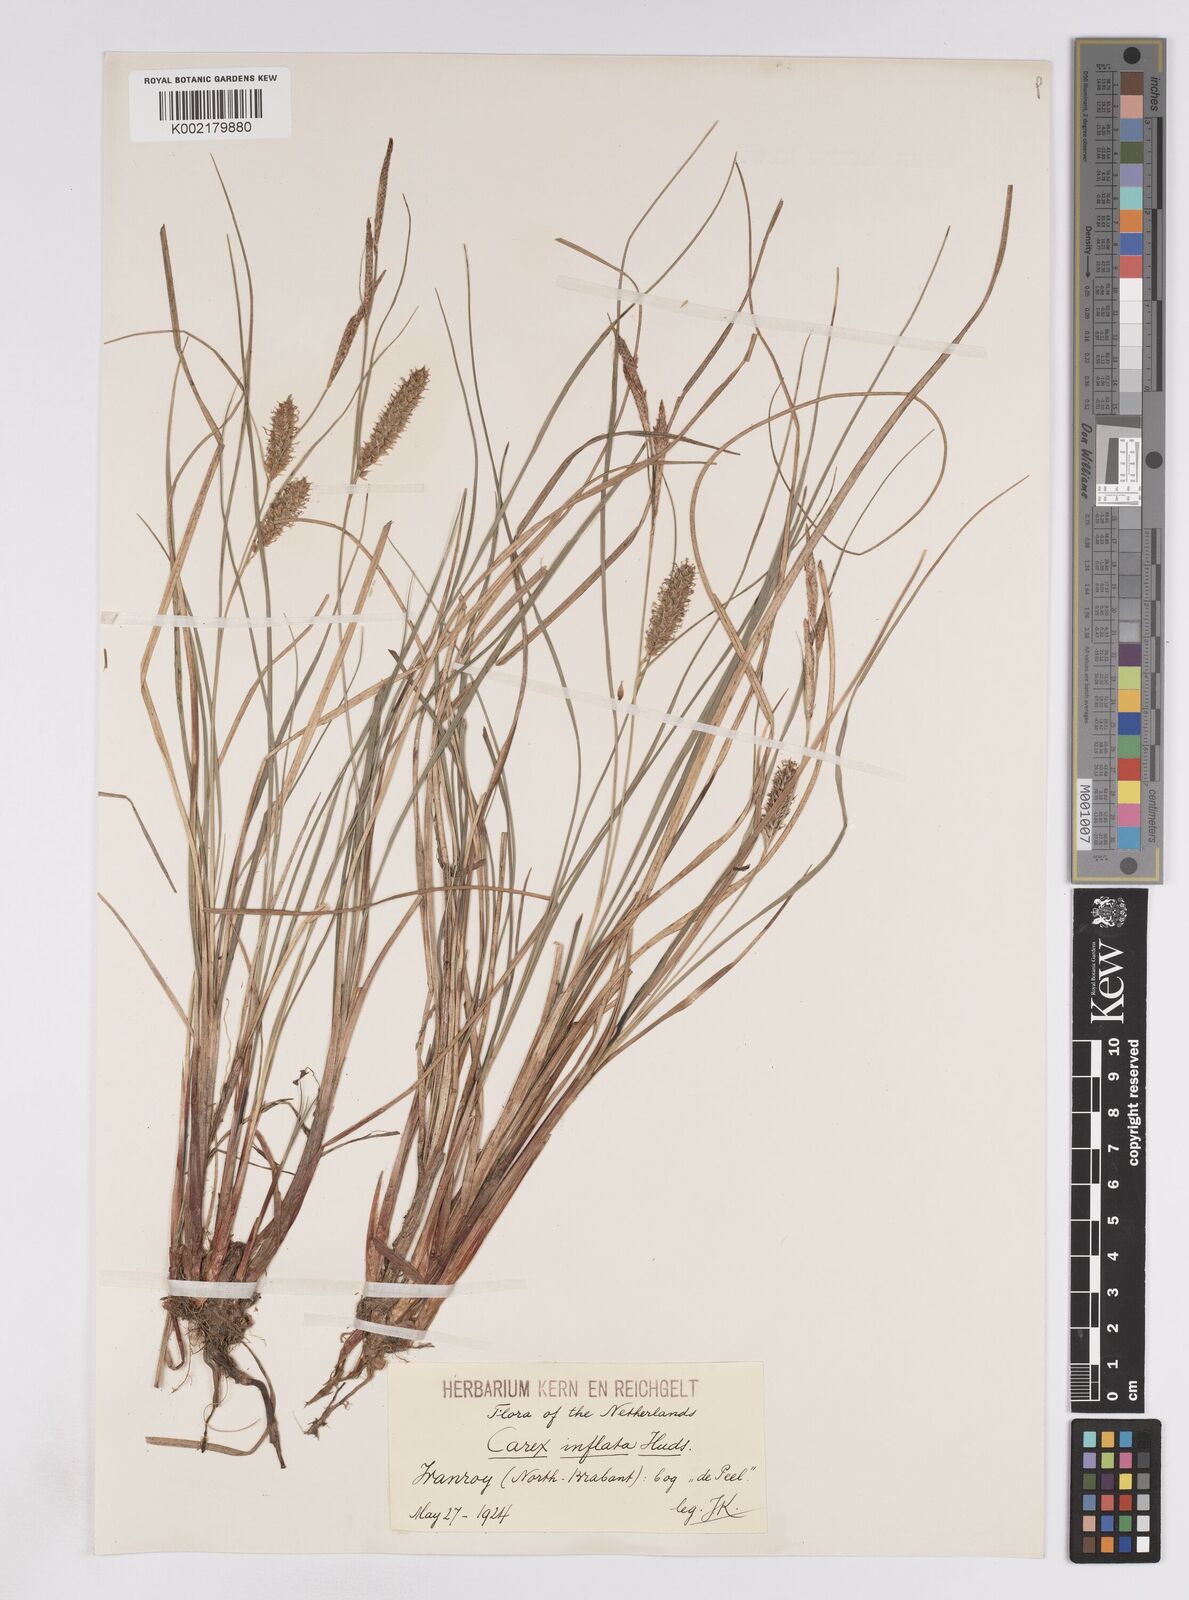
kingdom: Plantae
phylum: Tracheophyta
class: Liliopsida
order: Poales
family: Cyperaceae
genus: Carex
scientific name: Carex rostrata
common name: Bottle sedge
